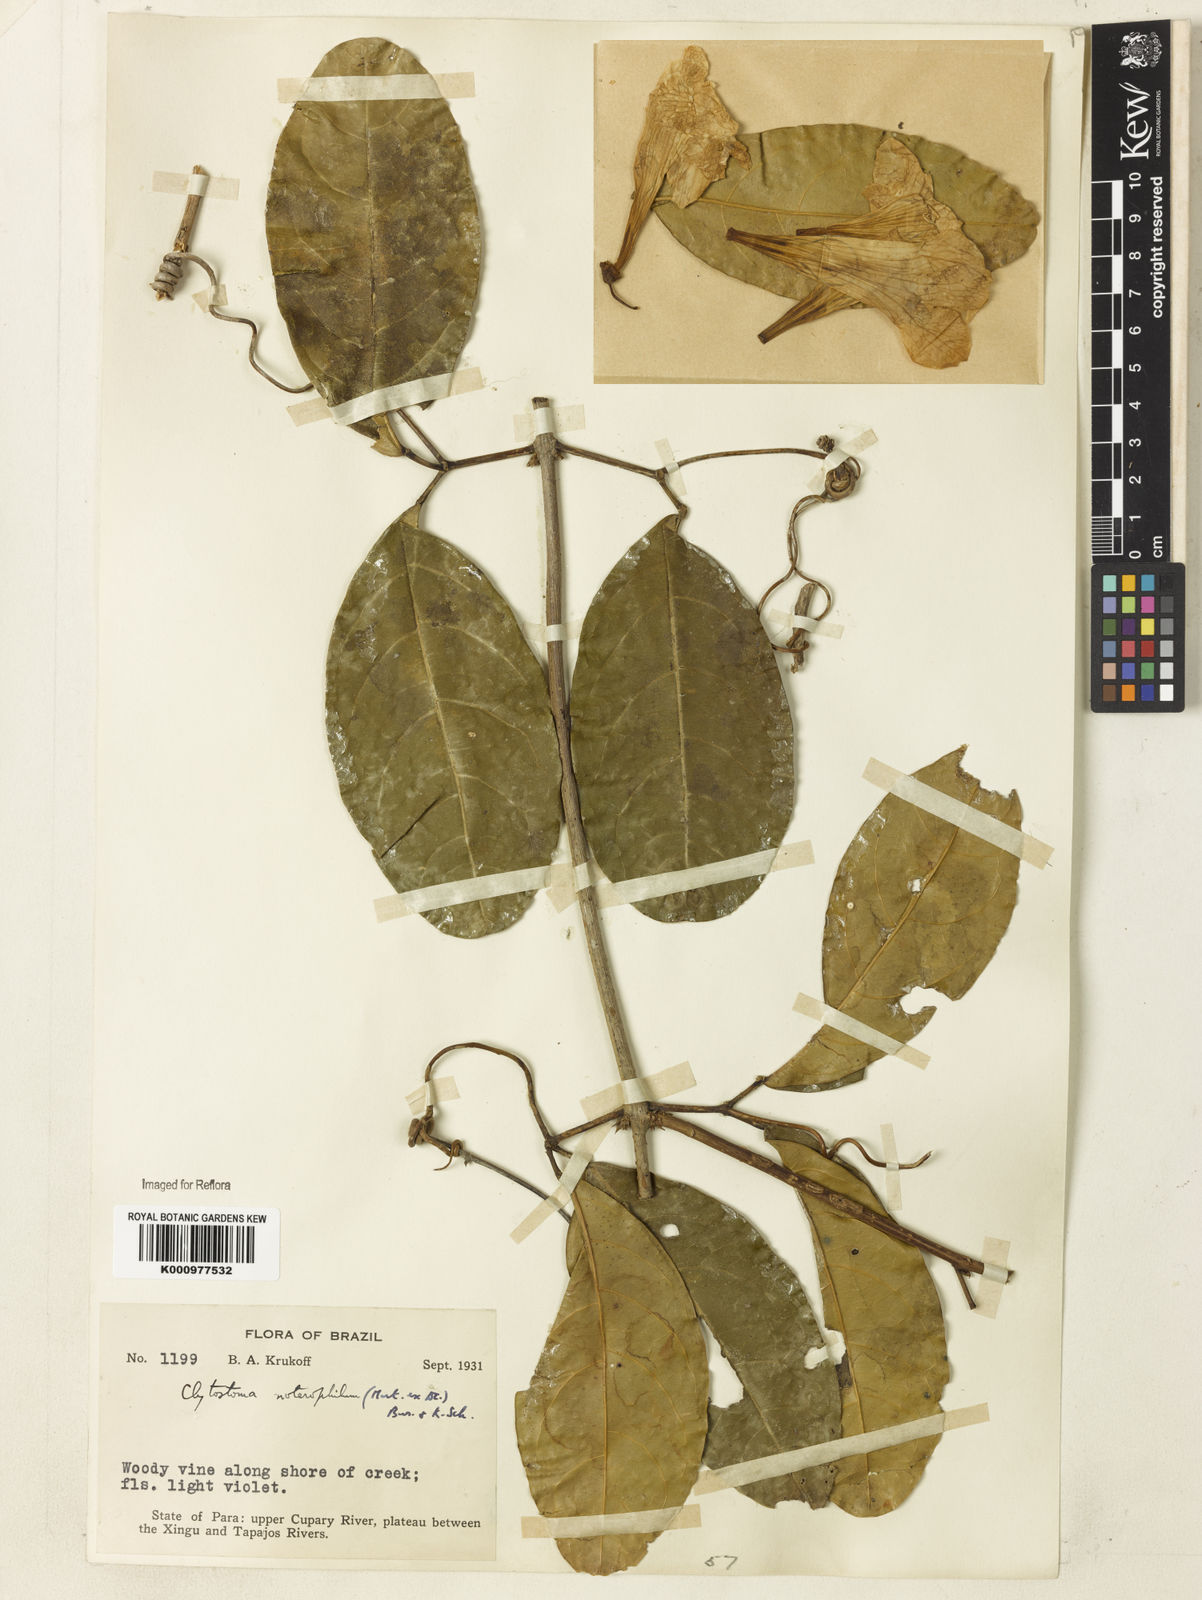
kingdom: Plantae
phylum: Tracheophyta
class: Magnoliopsida
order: Lamiales
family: Bignoniaceae
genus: Bignonia
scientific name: Bignonia binata
